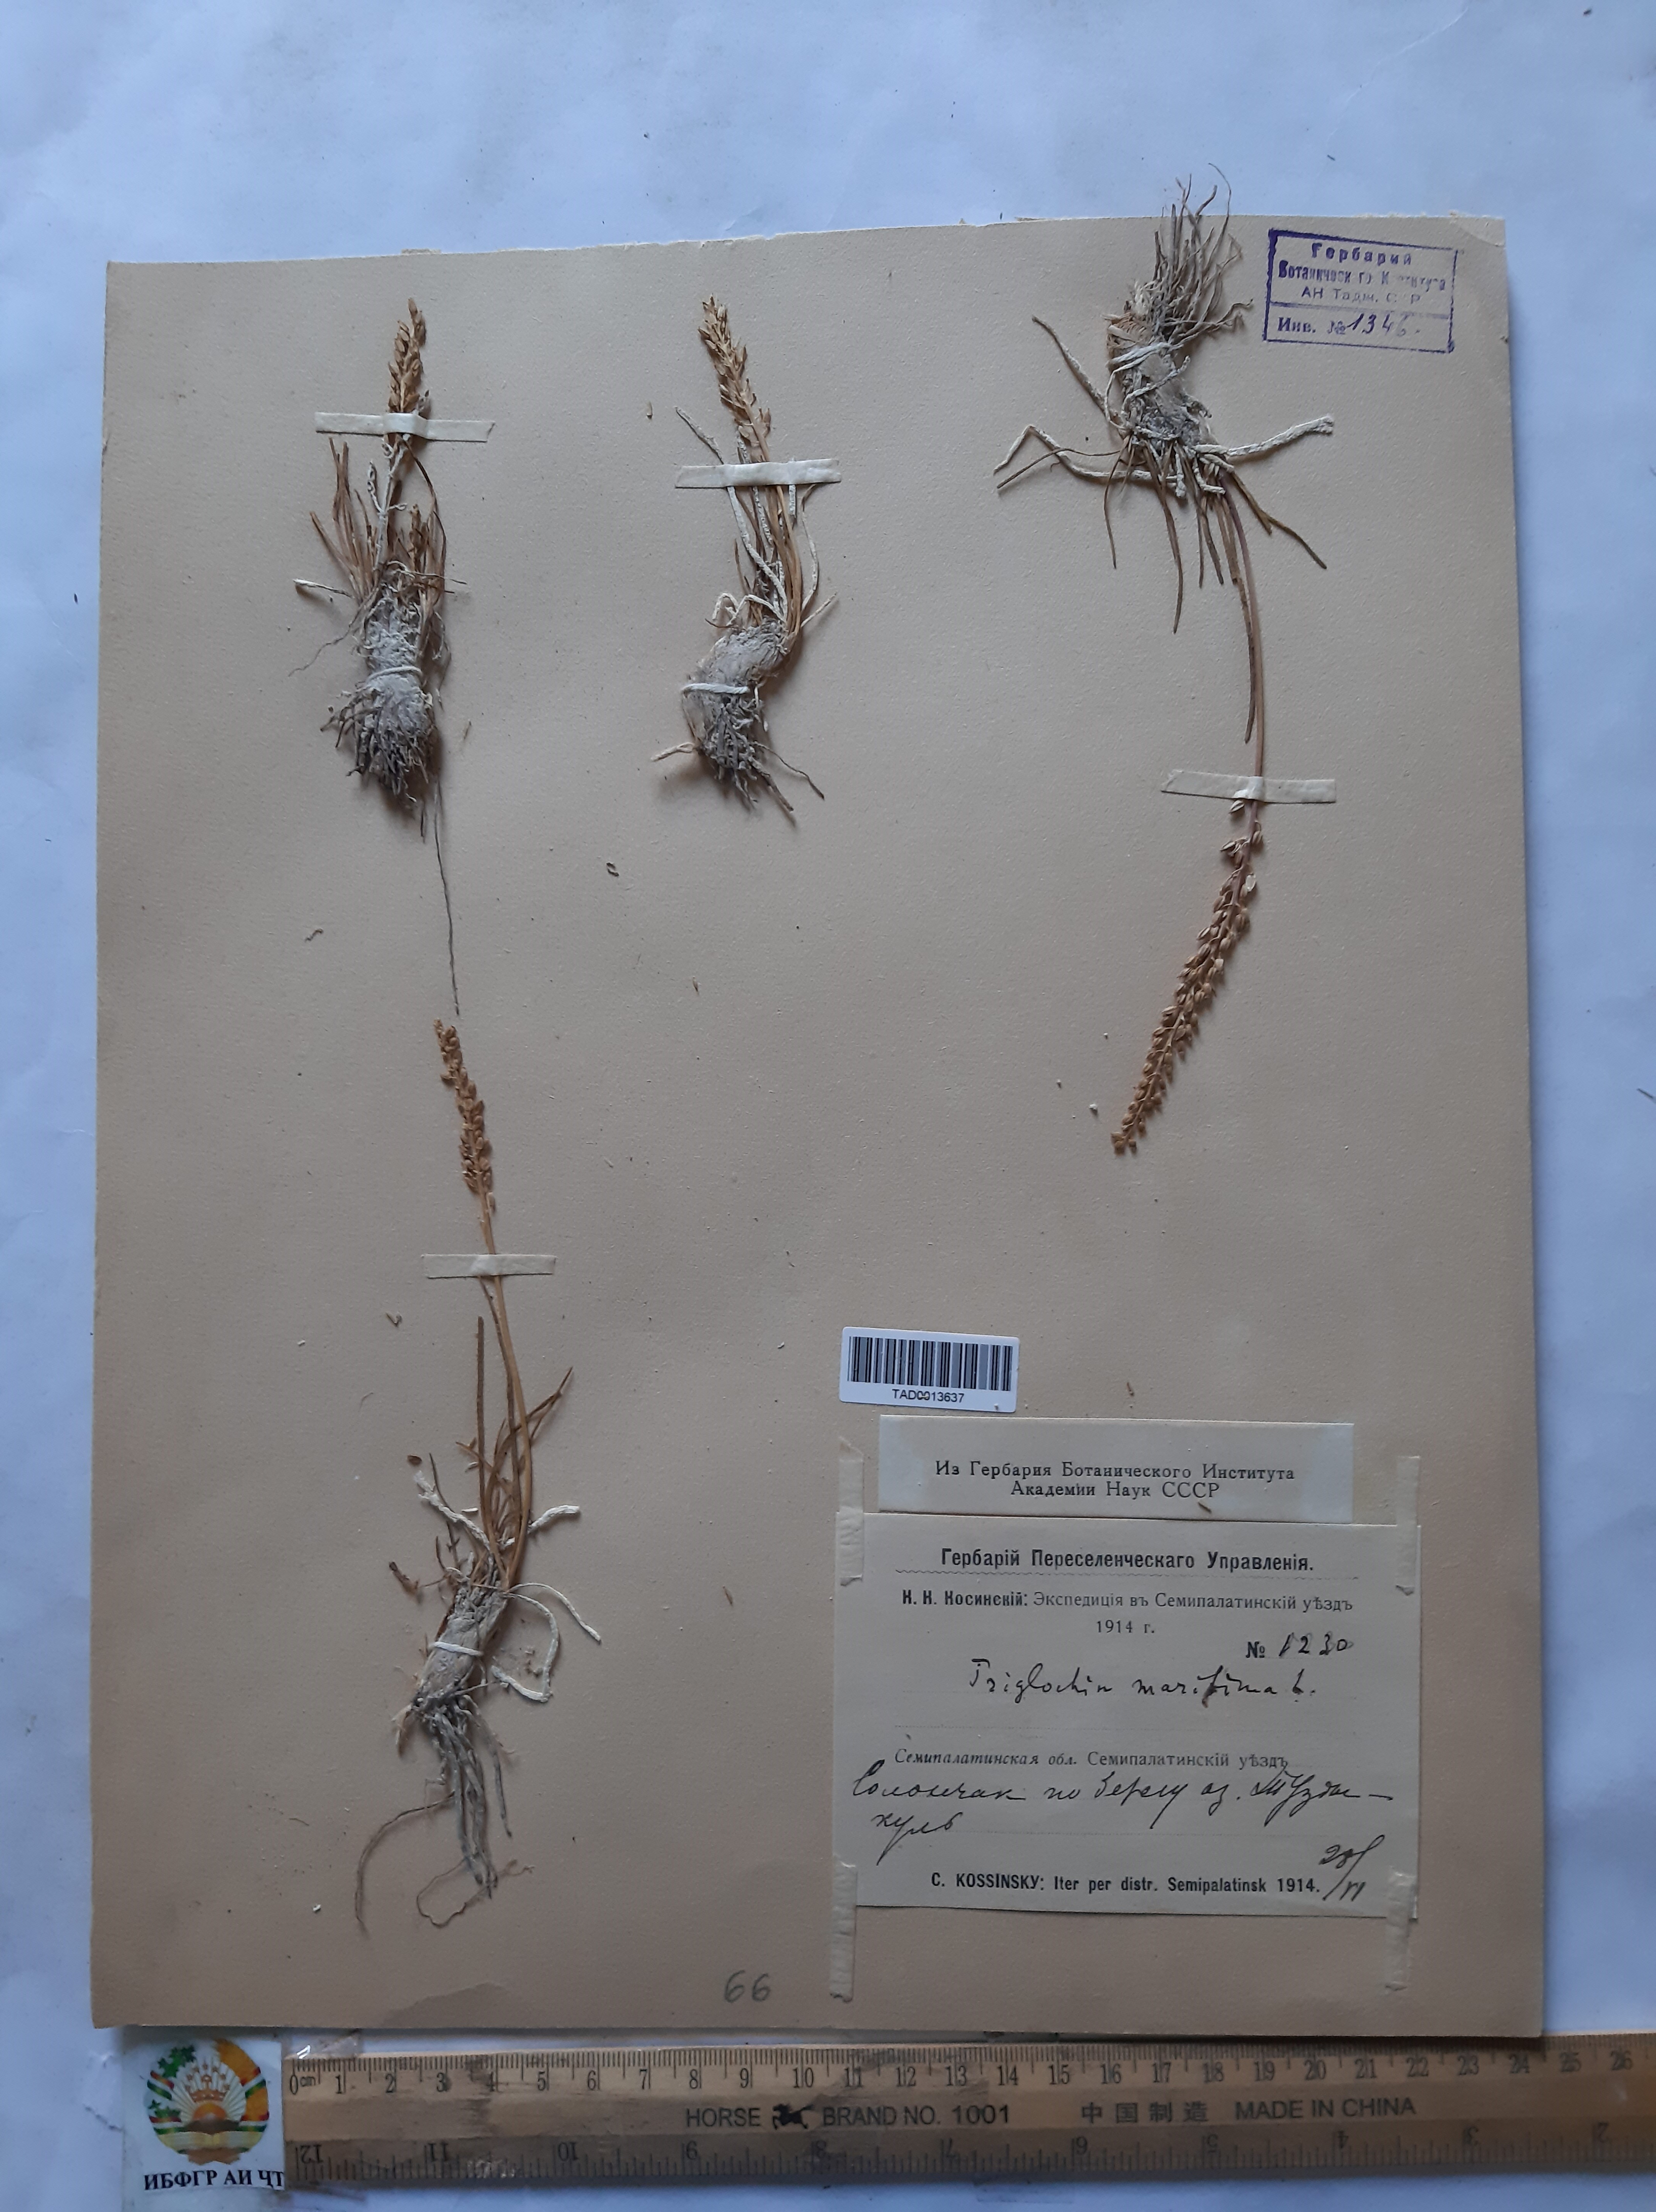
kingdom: Plantae
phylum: Tracheophyta
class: Liliopsida
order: Alismatales
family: Juncaginaceae
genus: Triglochin
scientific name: Triglochin maritima
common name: Sea arrowgrass
